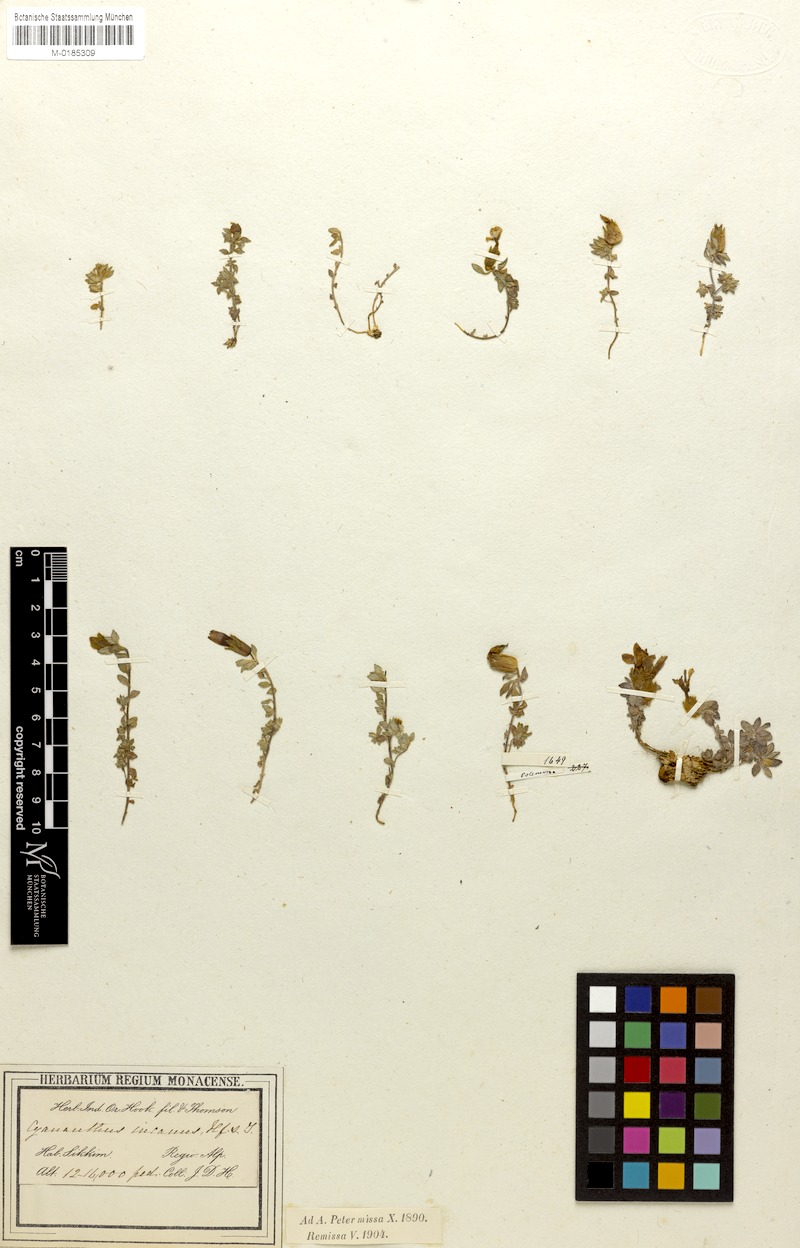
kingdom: Plantae
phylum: Tracheophyta
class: Magnoliopsida
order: Asterales
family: Campanulaceae
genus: Cyananthus
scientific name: Cyananthus incanus
